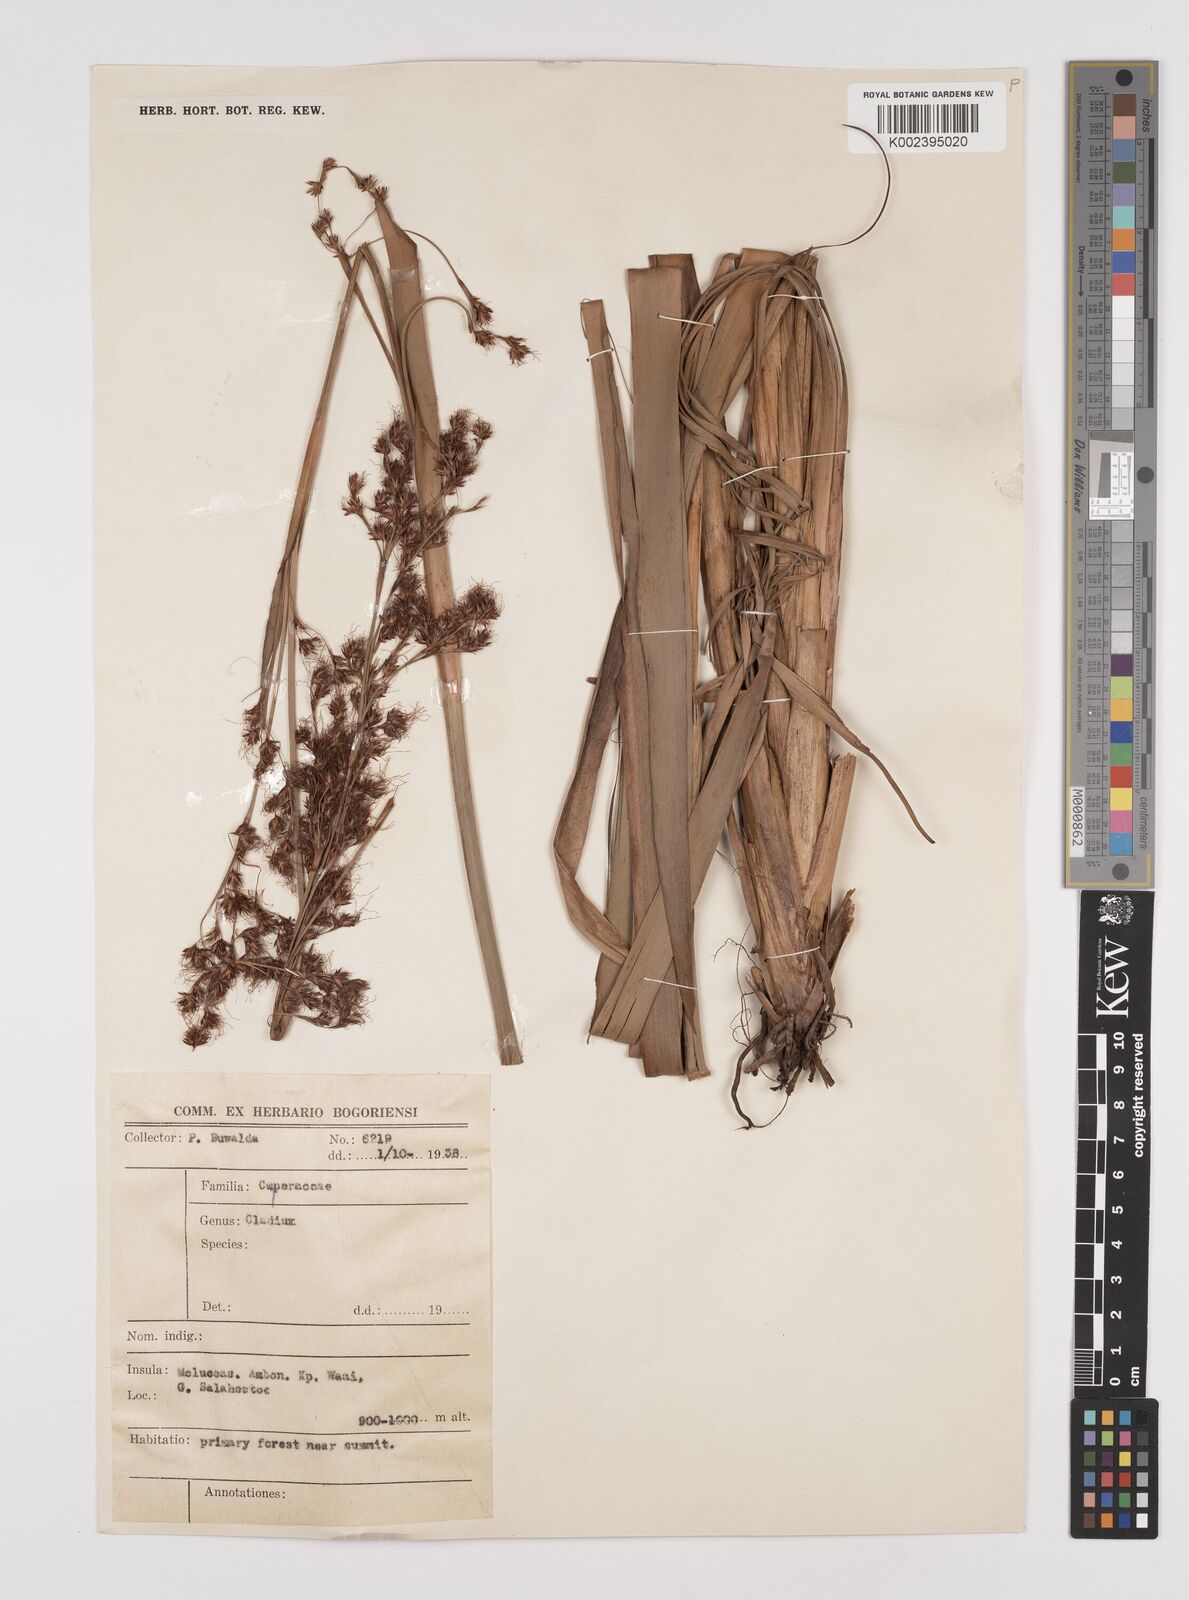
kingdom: Plantae
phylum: Tracheophyta
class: Liliopsida
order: Poales
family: Cyperaceae
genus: Machaerina
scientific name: Machaerina sinclairii
